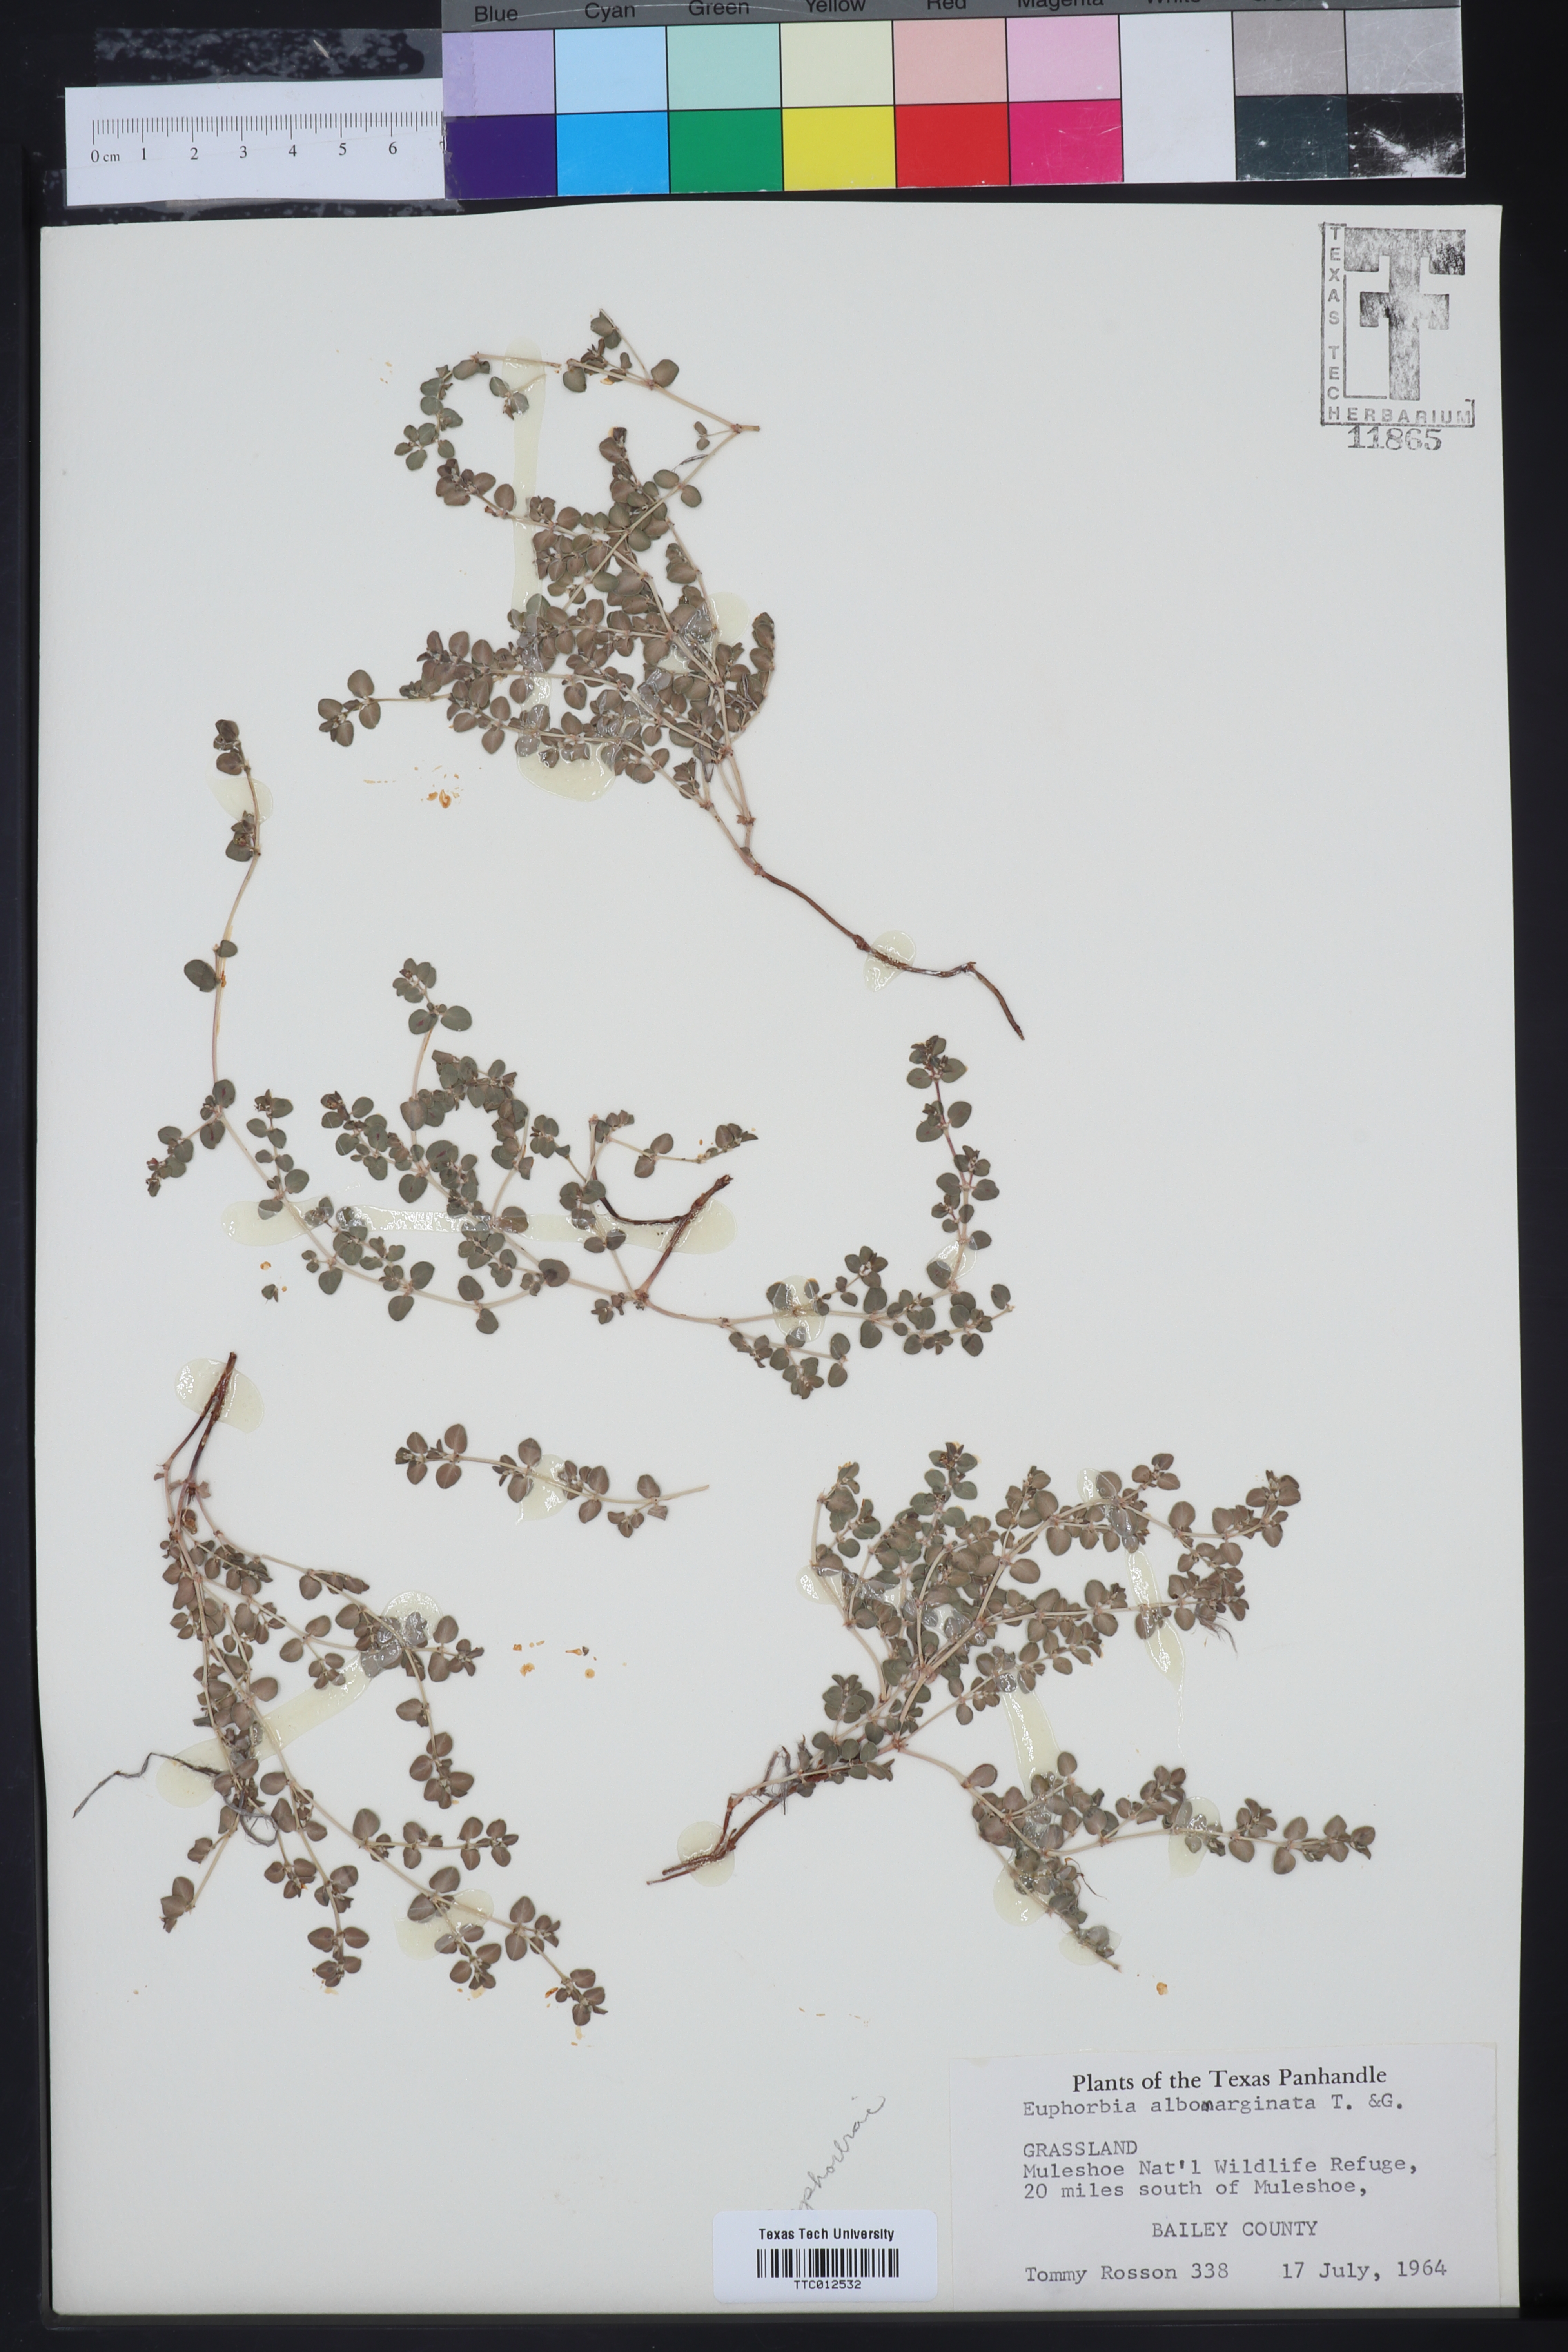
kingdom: Plantae
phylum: Tracheophyta
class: Magnoliopsida
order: Malpighiales
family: Euphorbiaceae
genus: Euphorbia
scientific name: Euphorbia albomarginata
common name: Whitemargin sandmat
